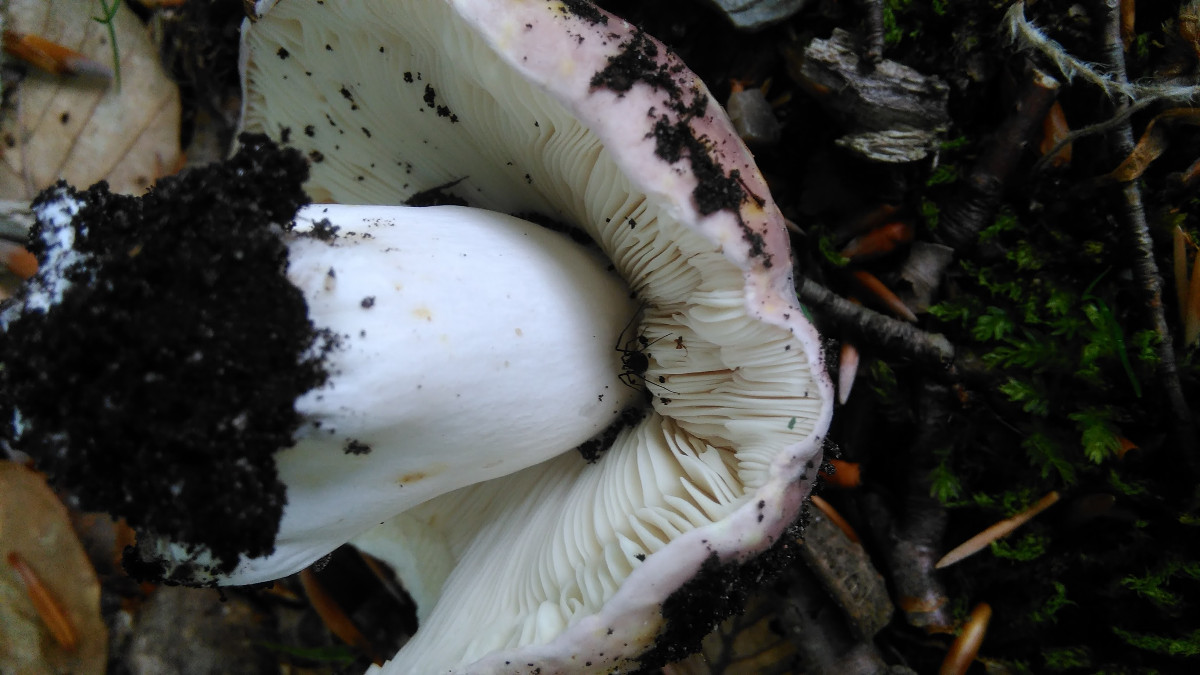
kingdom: Fungi
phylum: Basidiomycota
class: Agaricomycetes
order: Russulales
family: Russulaceae
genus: Russula
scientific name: Russula cyanoxantha
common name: broget skørhat
